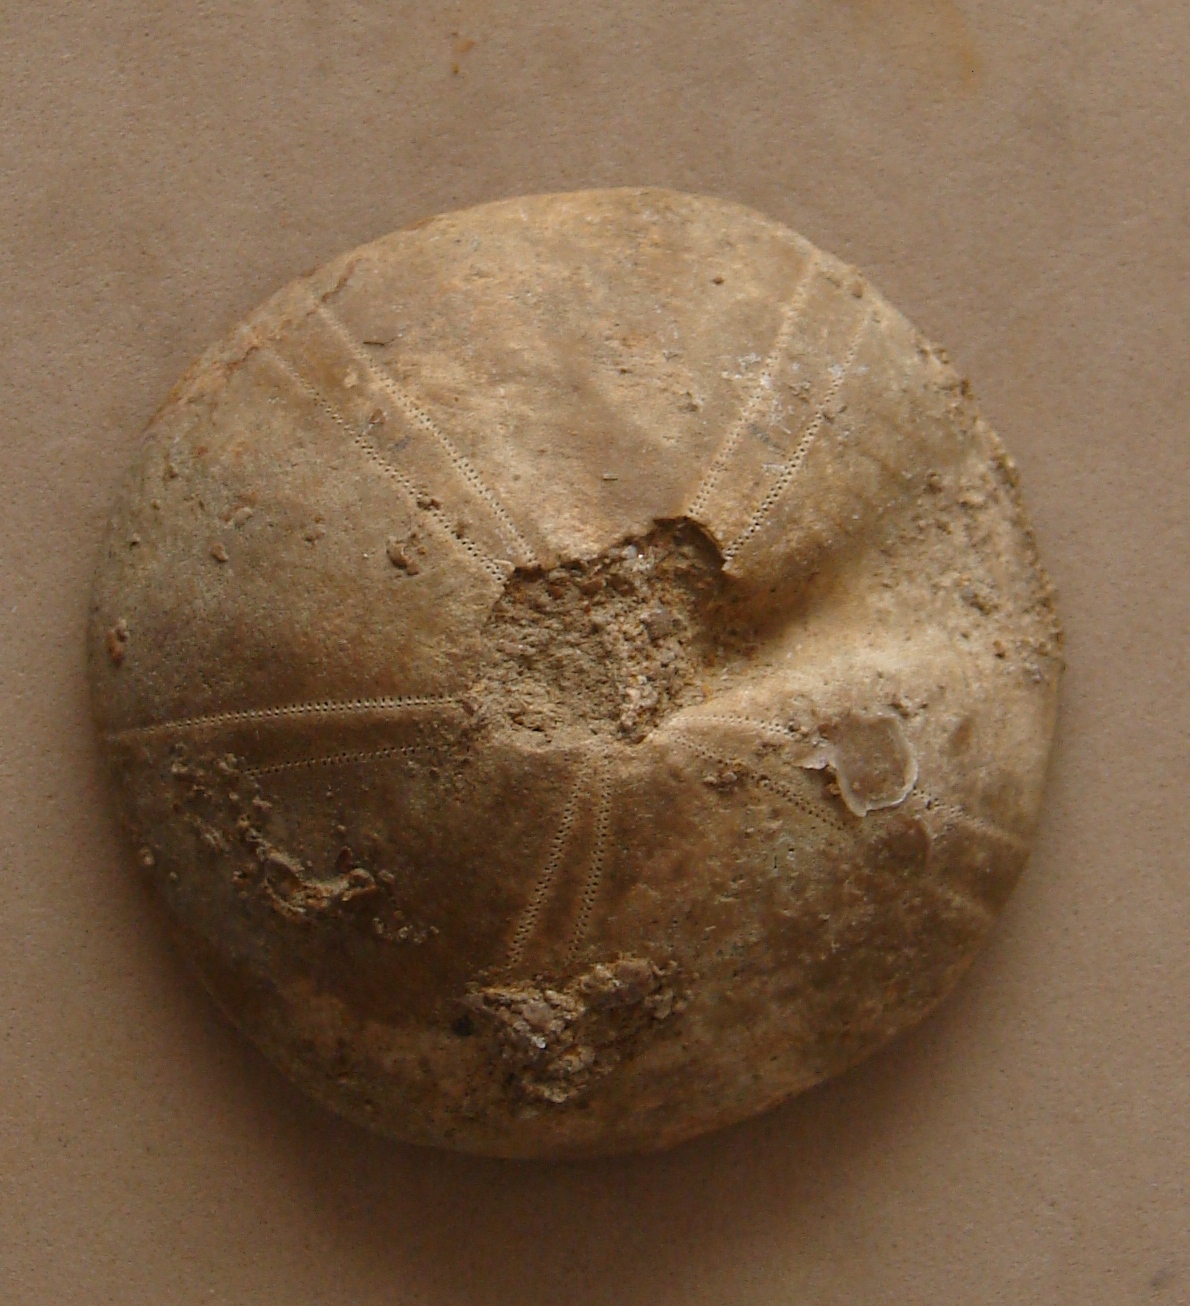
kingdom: Animalia
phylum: Echinodermata
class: Echinoidea
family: Galeropygidae
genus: Galeropygus
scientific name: Galeropygus
